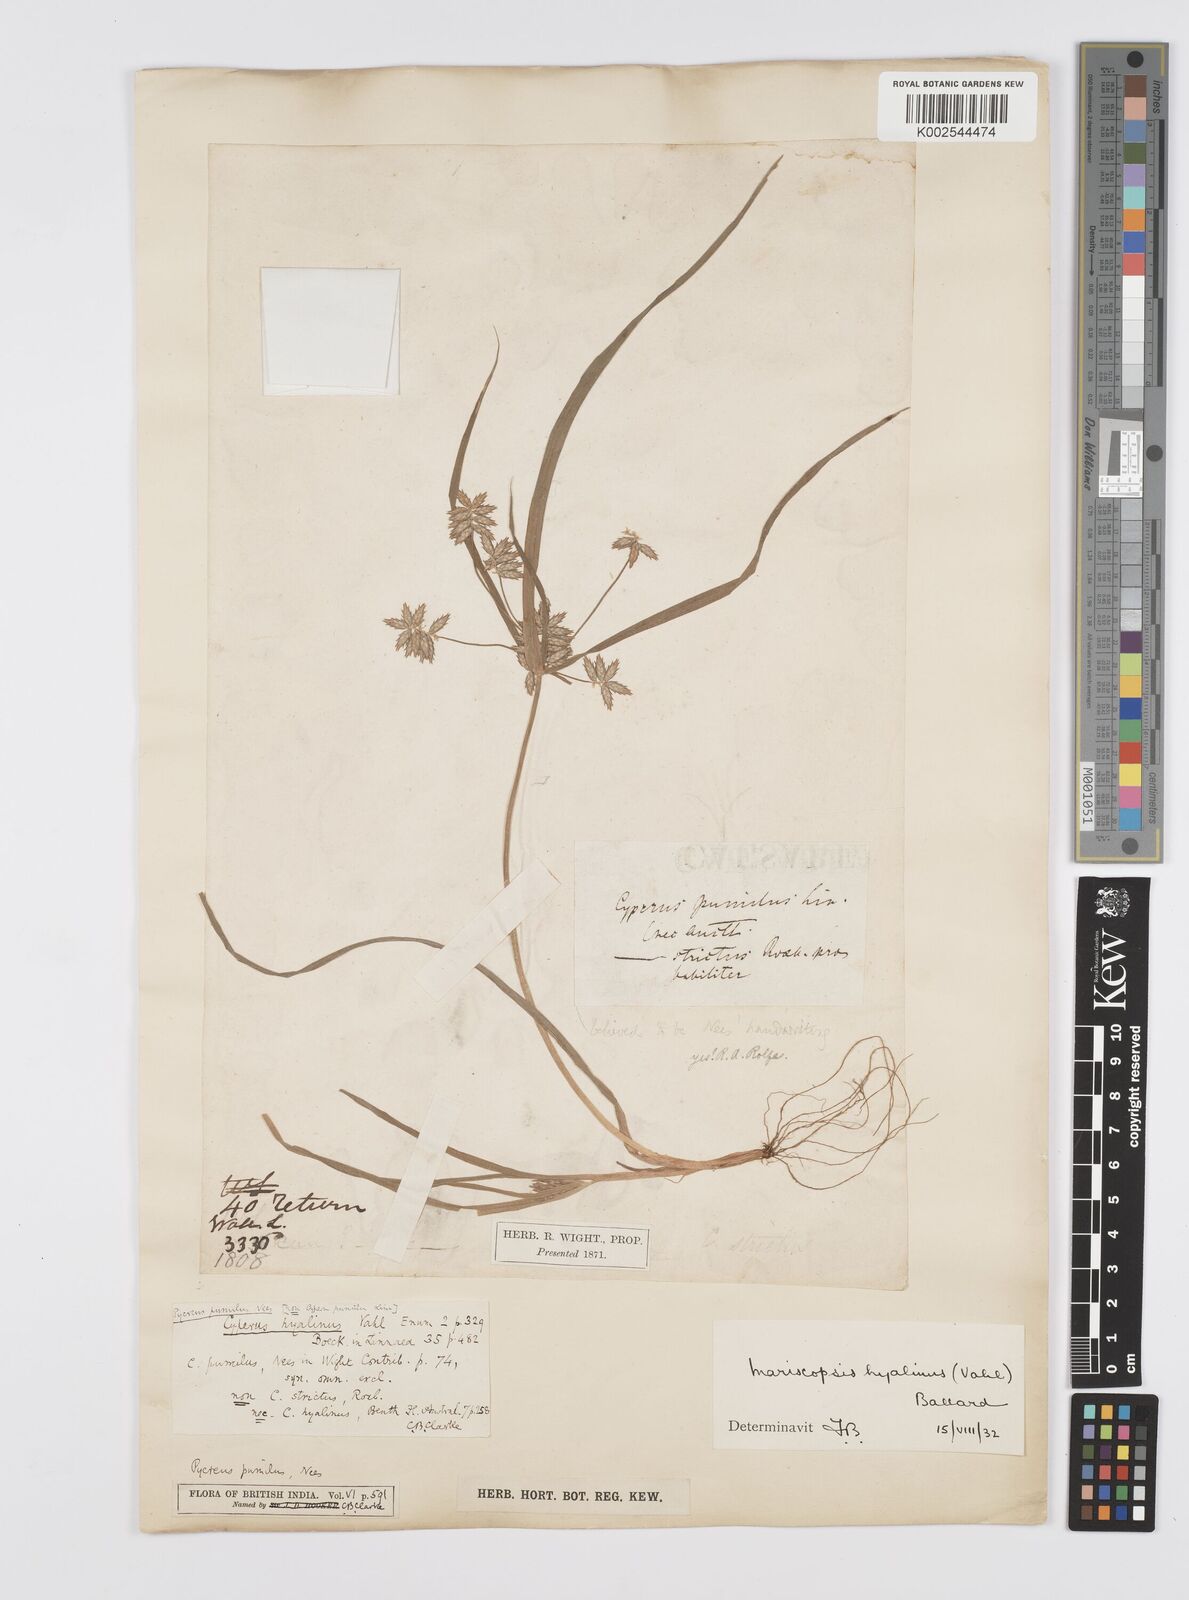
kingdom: Plantae
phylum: Tracheophyta
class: Liliopsida
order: Poales
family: Cyperaceae
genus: Cyperus
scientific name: Cyperus hyalinus
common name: Queensland sedge
